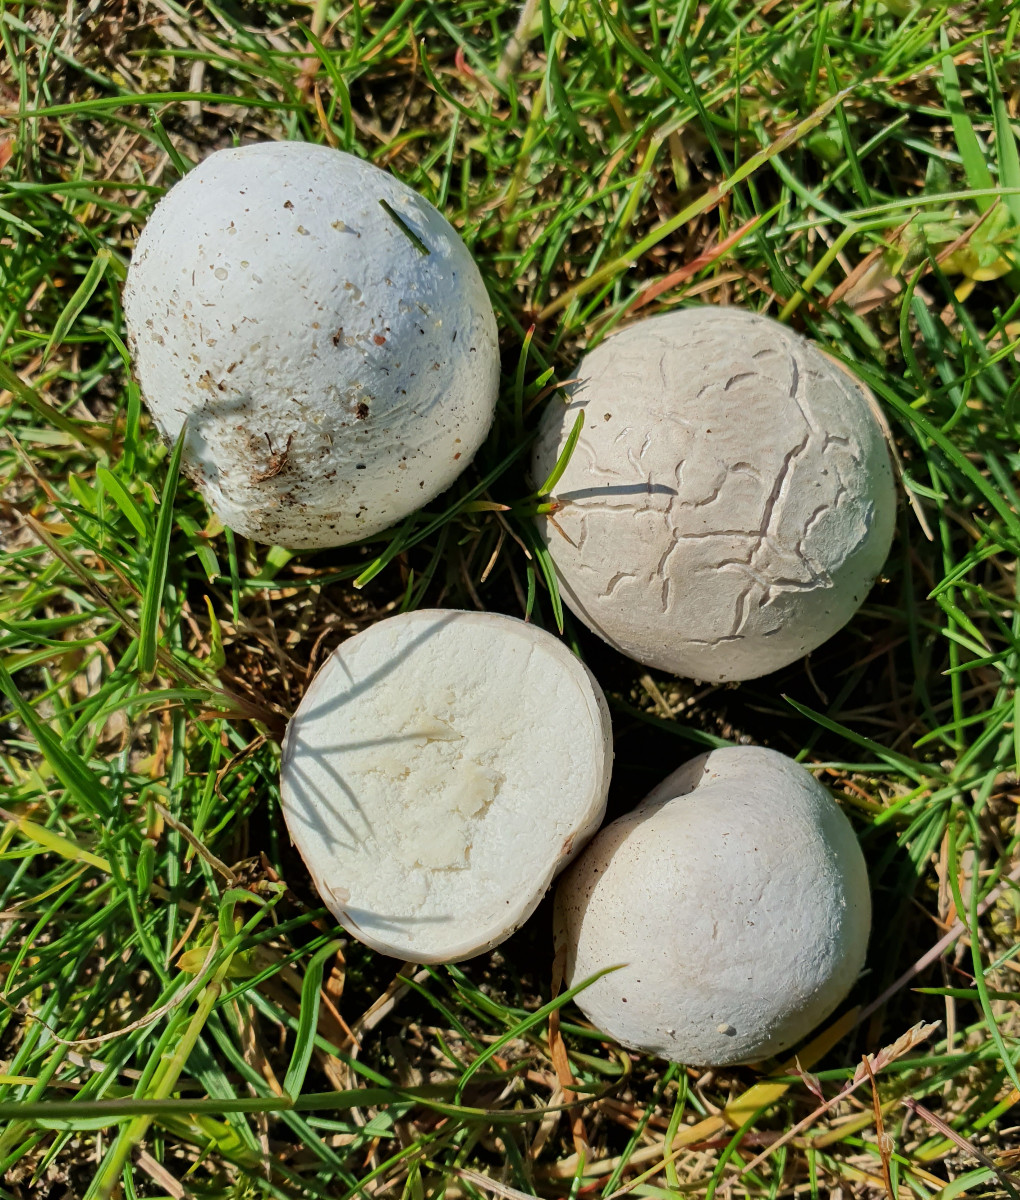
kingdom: Fungi
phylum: Basidiomycota
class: Agaricomycetes
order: Agaricales
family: Lycoperdaceae
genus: Bovista
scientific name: Bovista plumbea
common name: blygrå bovist
